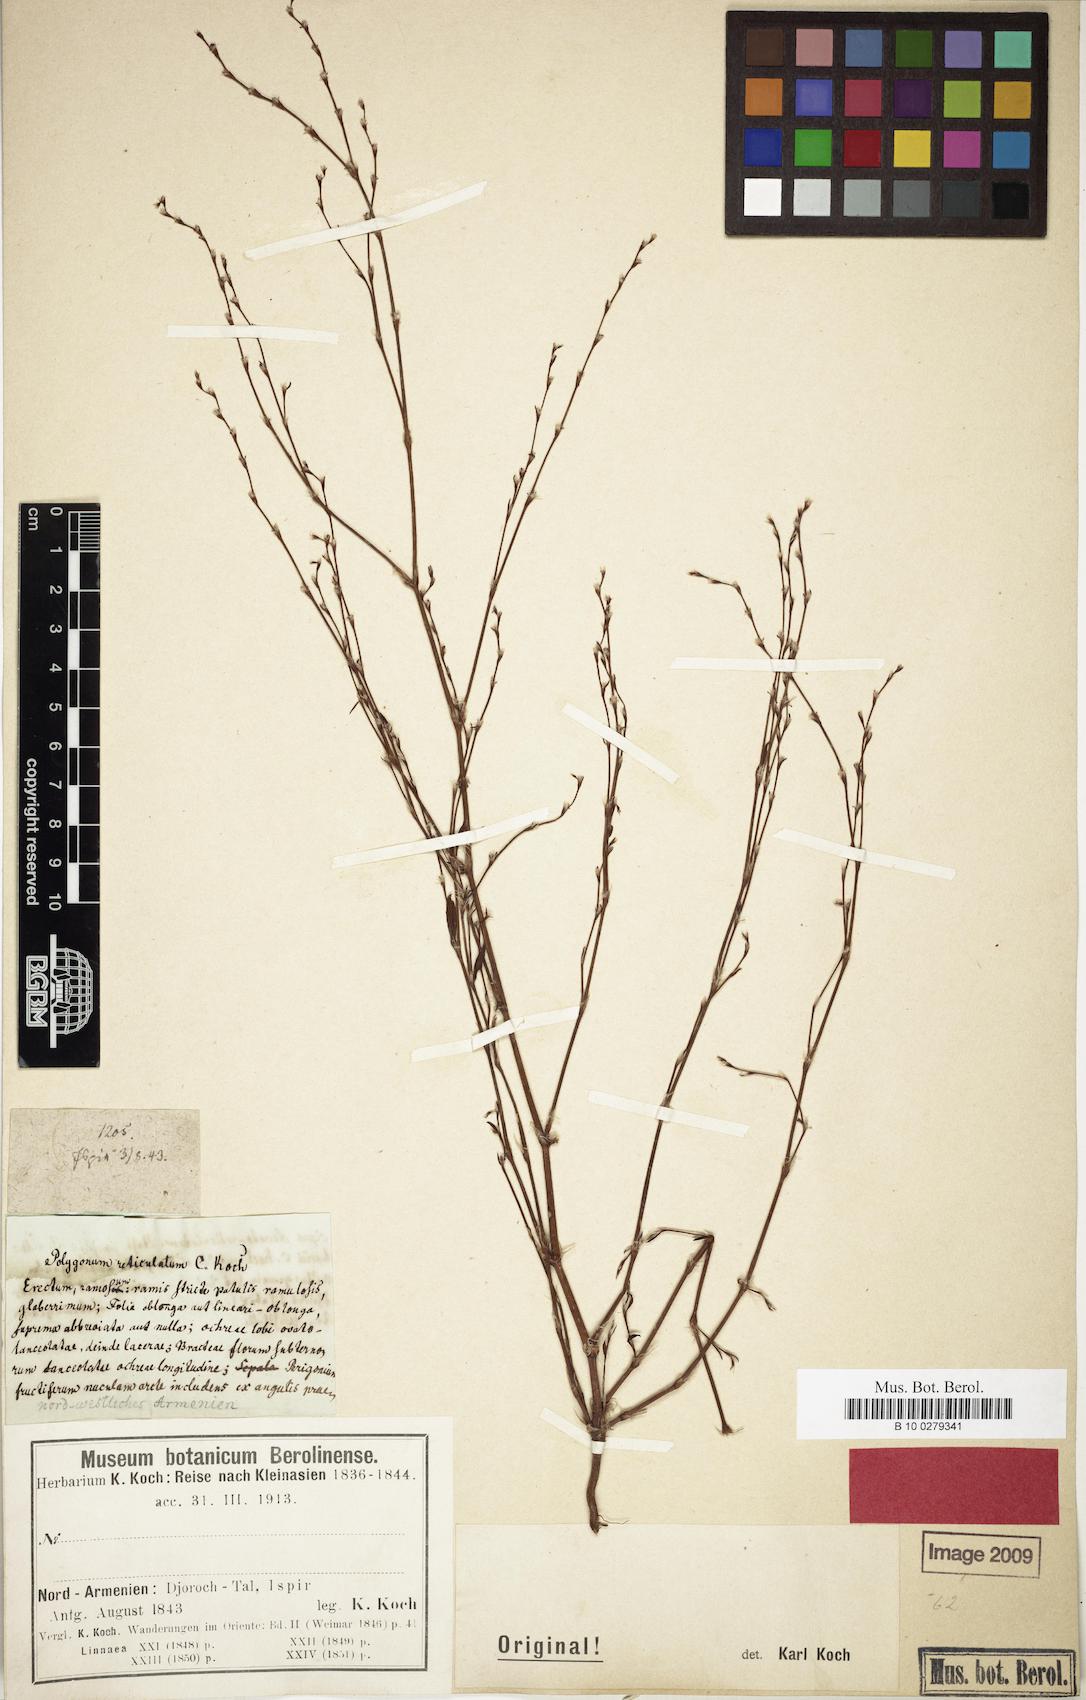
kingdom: Plantae
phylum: Tracheophyta
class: Magnoliopsida
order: Caryophyllales
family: Polygonaceae
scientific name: Polygonaceae
